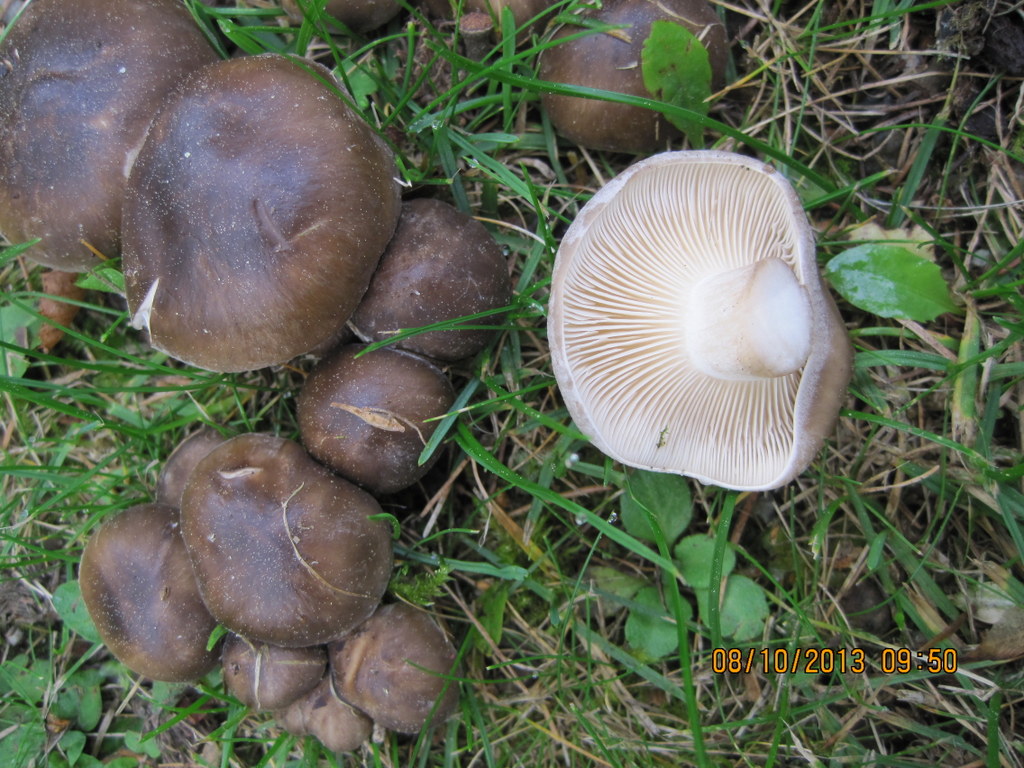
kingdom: Fungi
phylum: Basidiomycota
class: Agaricomycetes
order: Agaricales
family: Lyophyllaceae
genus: Lyophyllum
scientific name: Lyophyllum decastes
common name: Clustered domecap
